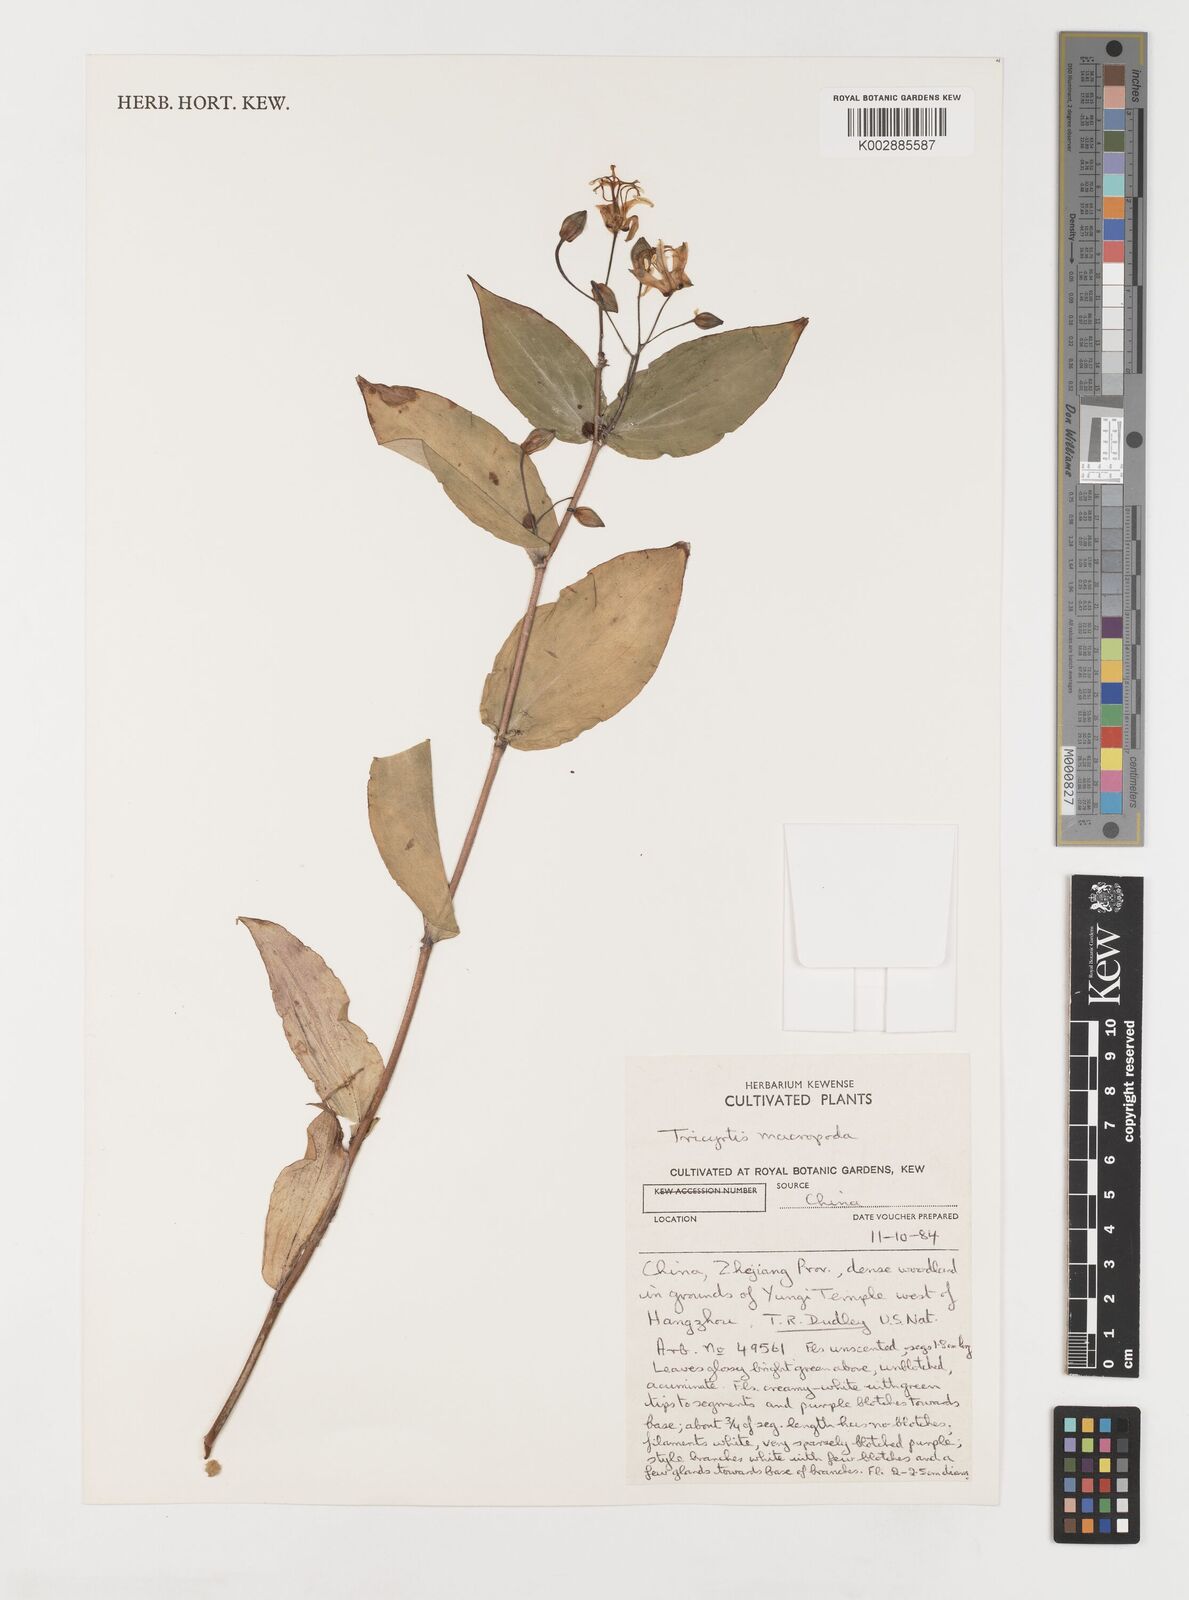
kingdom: Plantae
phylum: Tracheophyta
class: Liliopsida
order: Liliales
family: Liliaceae
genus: Tricyrtis
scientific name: Tricyrtis macropoda
